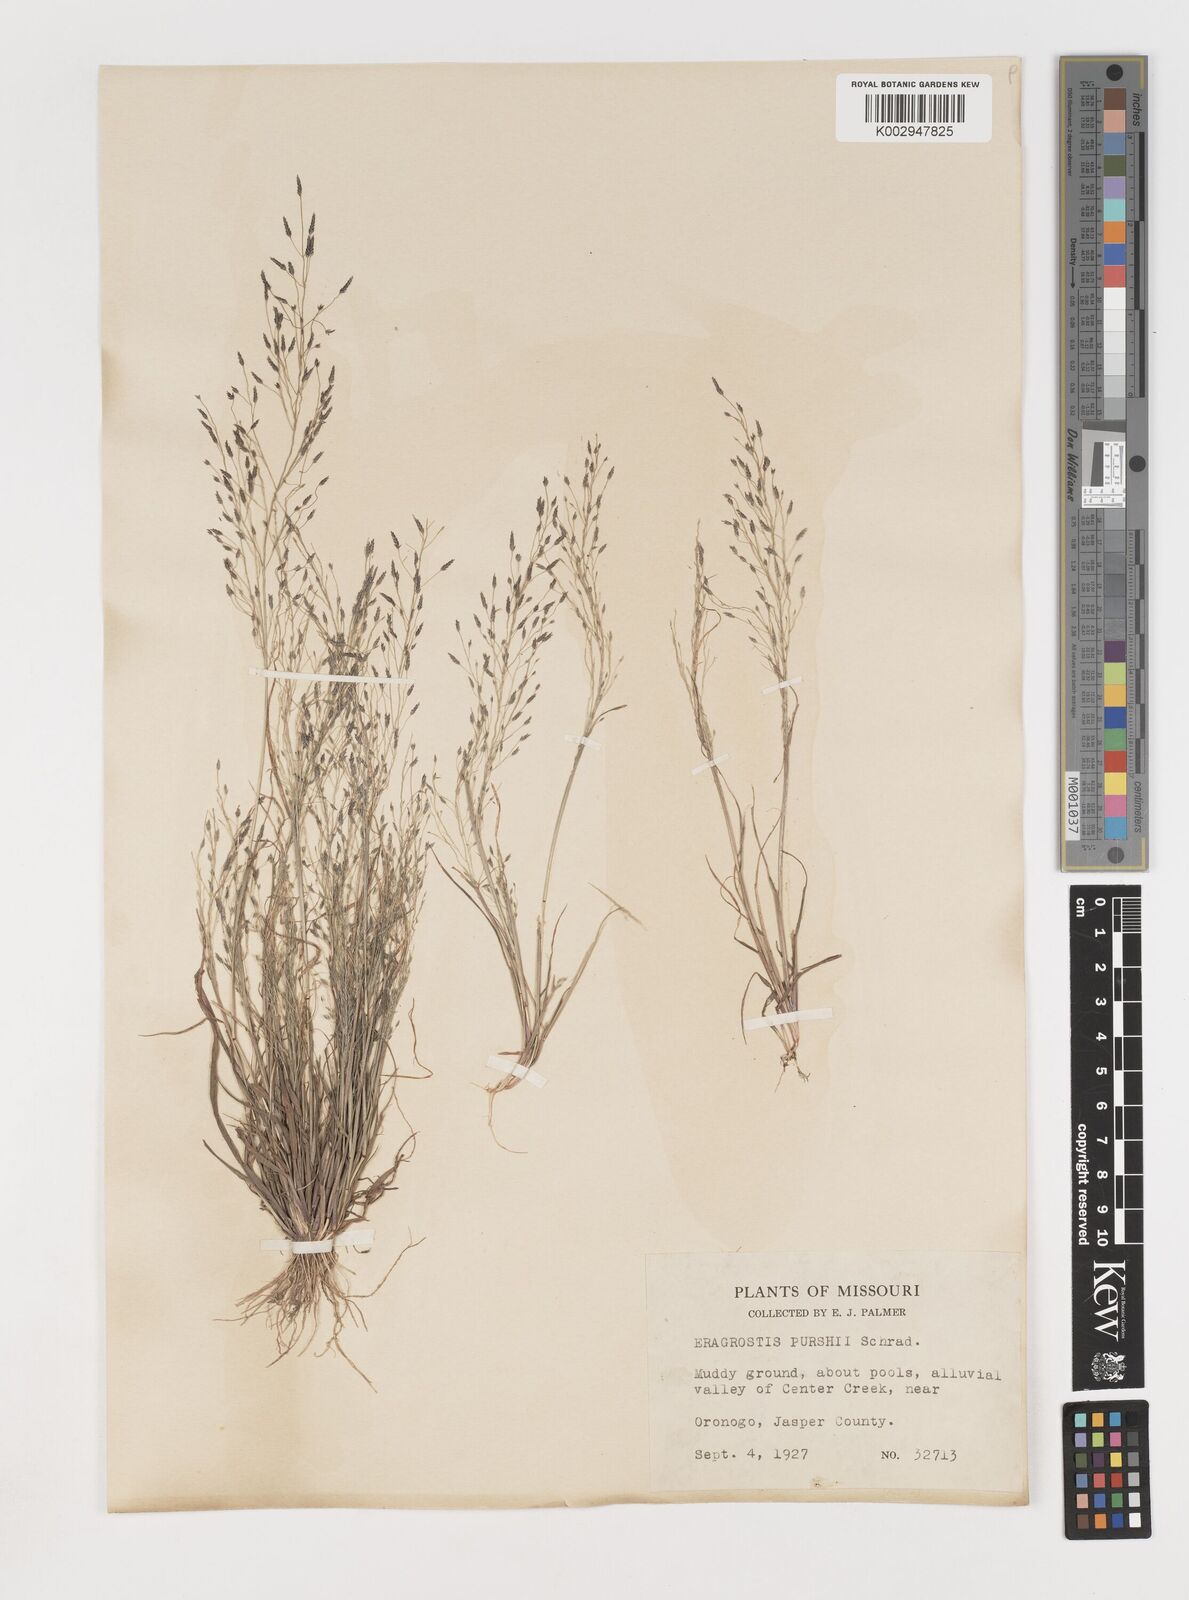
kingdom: Plantae
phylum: Tracheophyta
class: Liliopsida
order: Poales
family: Poaceae
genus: Eragrostis
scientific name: Eragrostis pectinacea
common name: Tufted lovegrass
